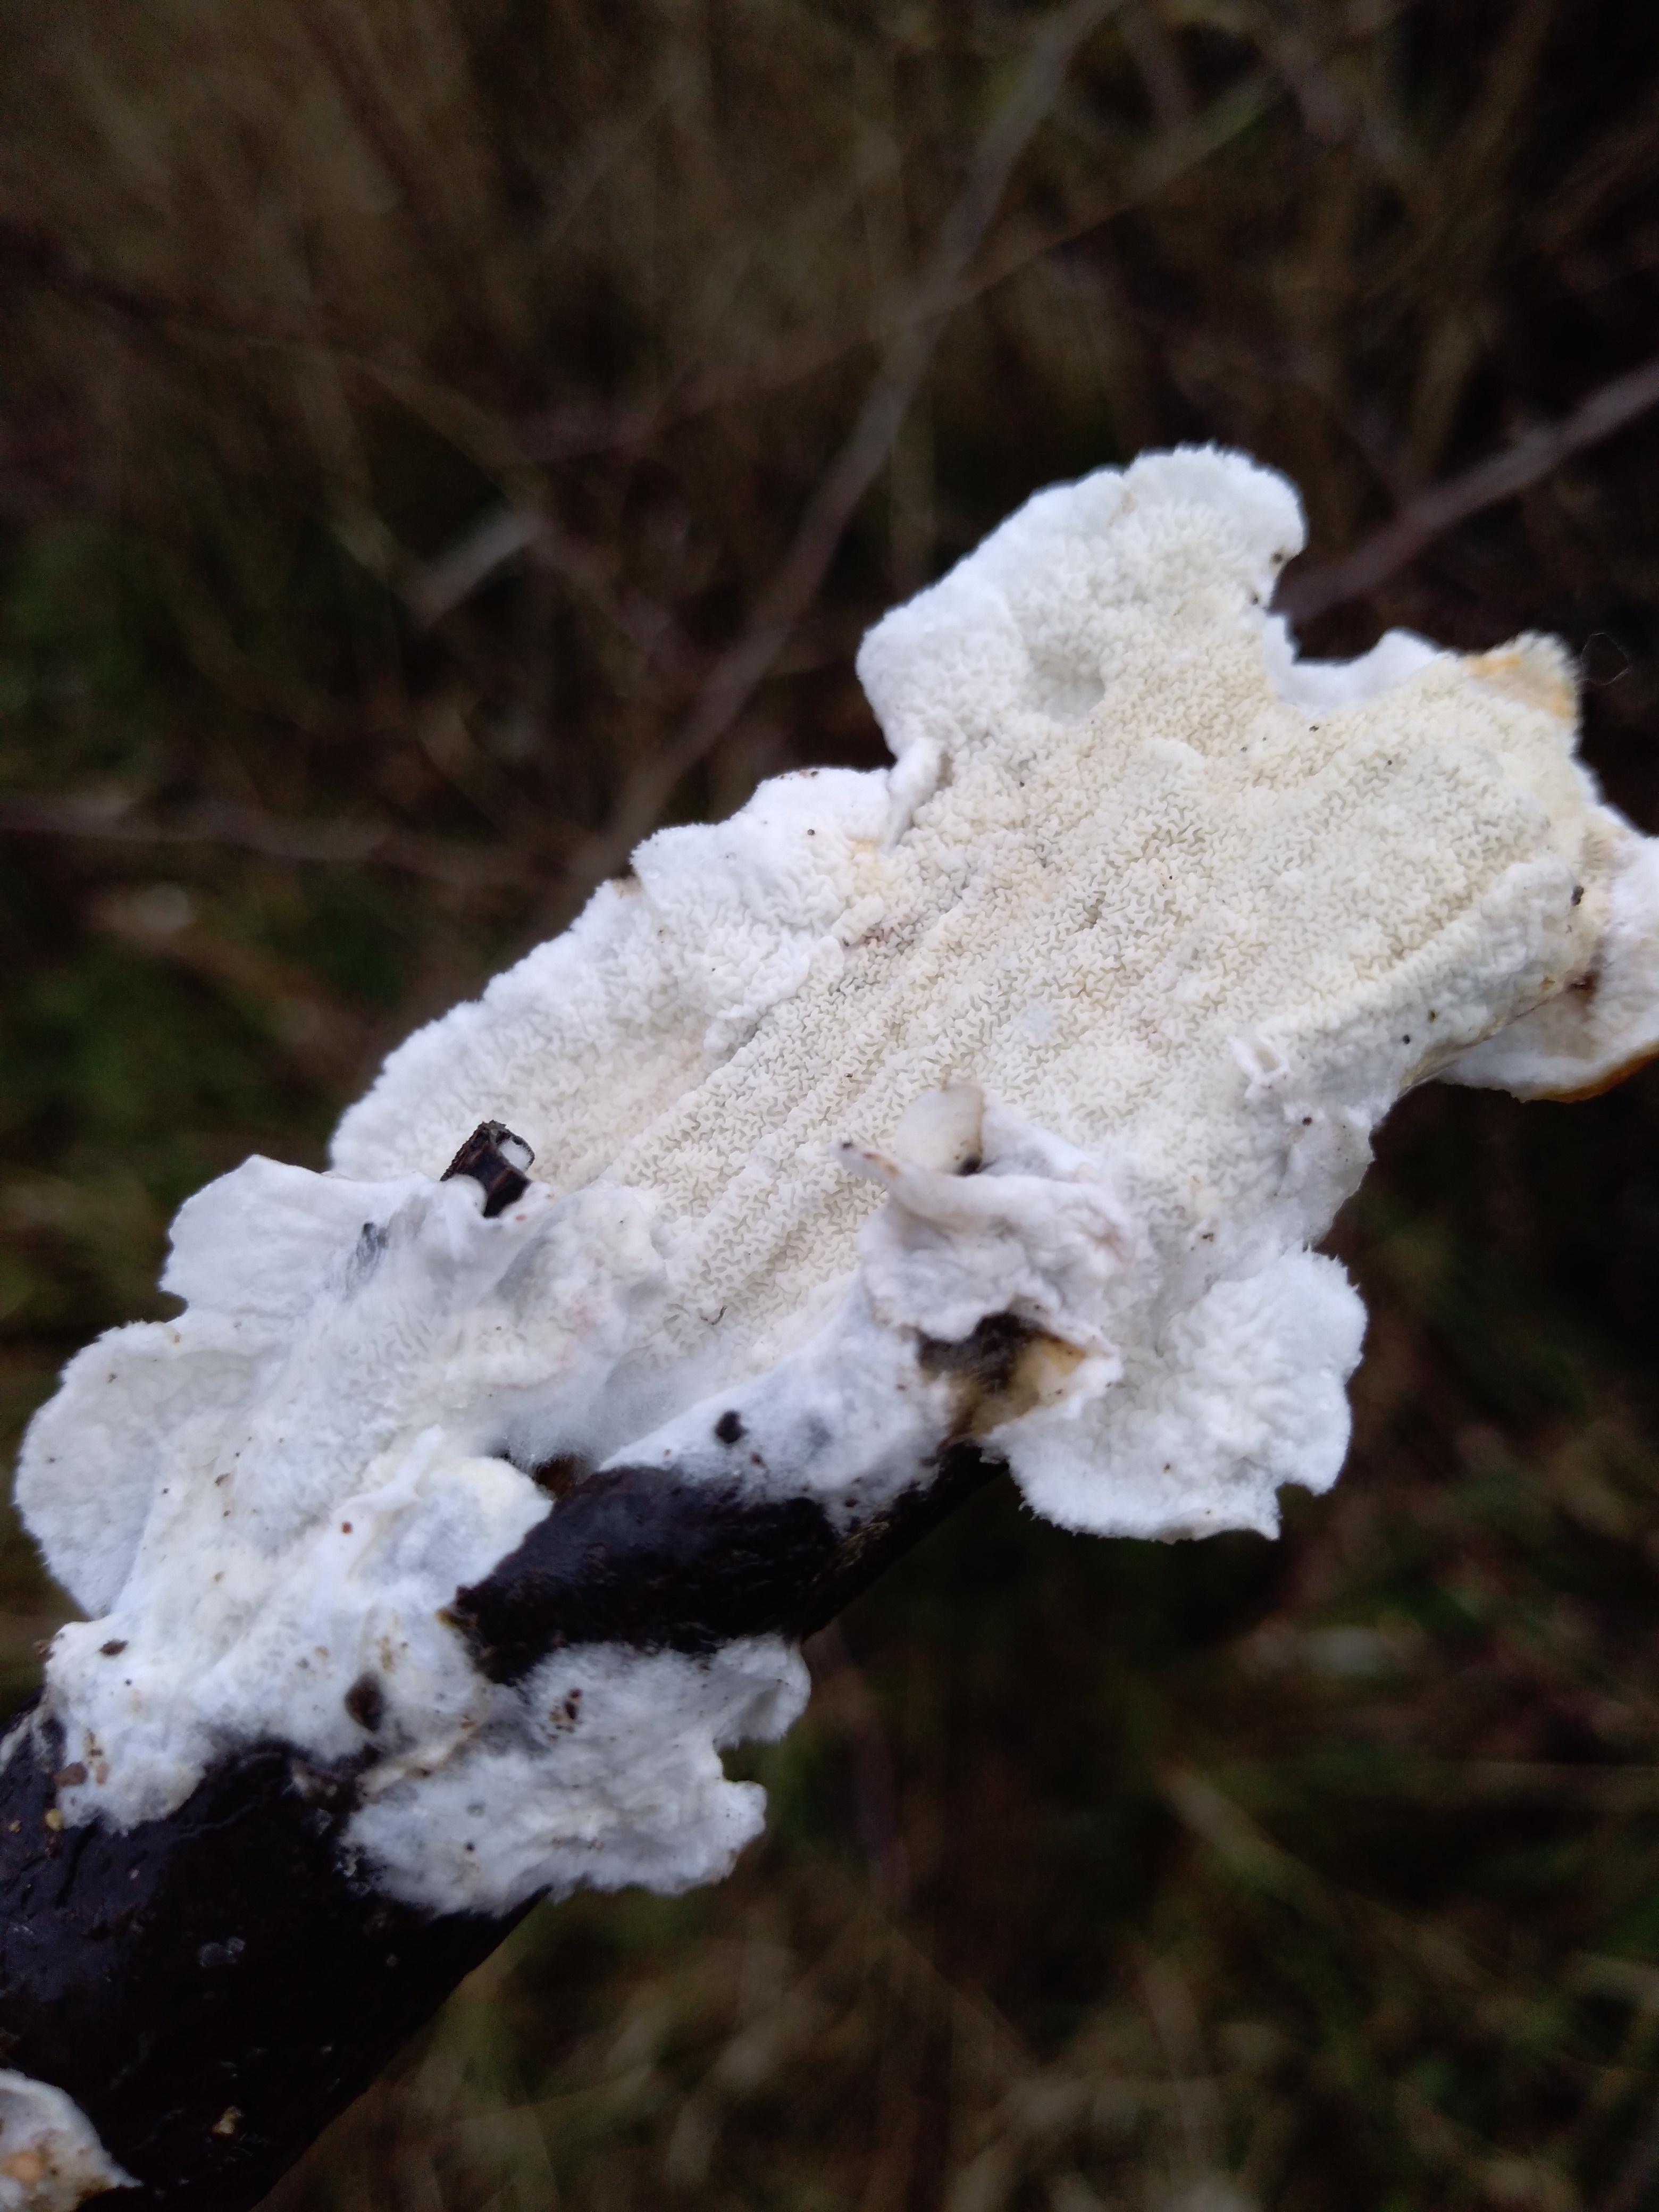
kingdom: Fungi
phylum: Basidiomycota
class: Agaricomycetes
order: Polyporales
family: Irpicaceae
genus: Byssomerulius
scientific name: Byssomerulius corium
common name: læder-åresvamp
